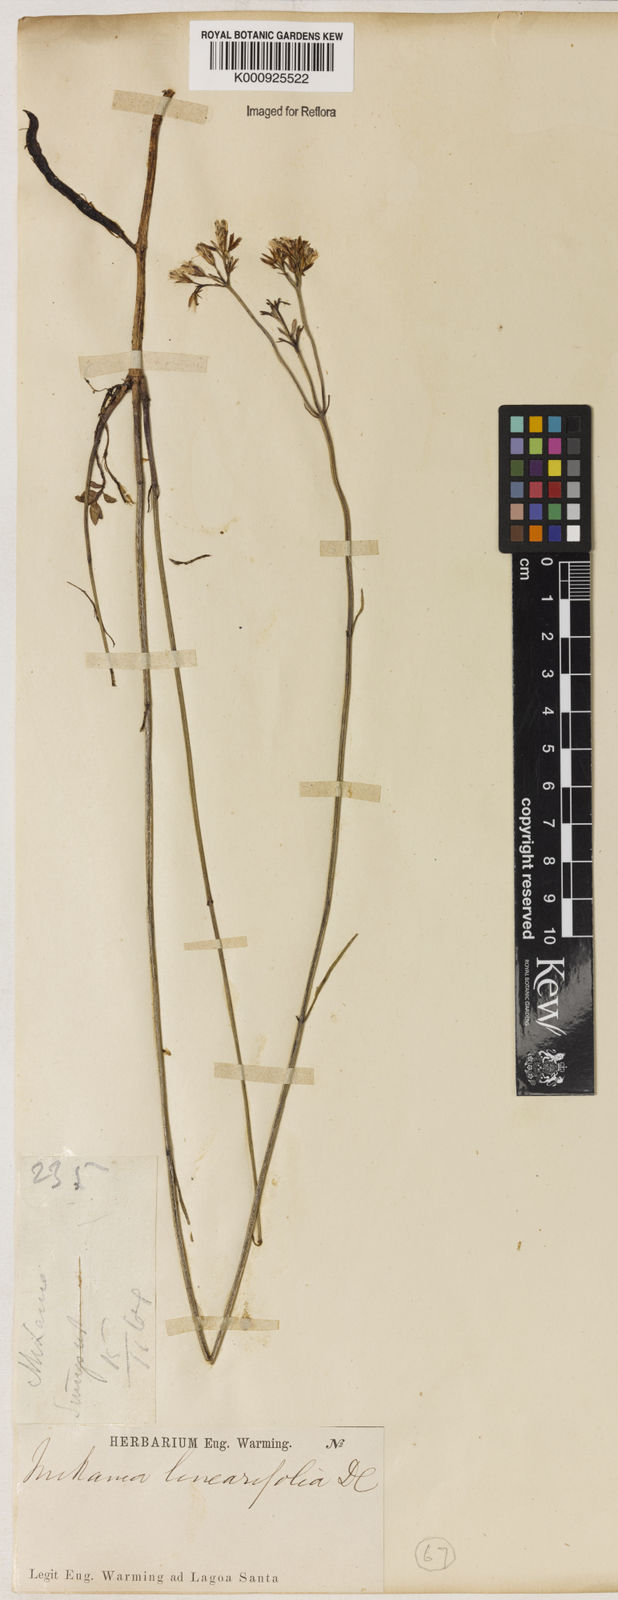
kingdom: Plantae
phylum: Tracheophyta
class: Magnoliopsida
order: Asterales
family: Asteraceae
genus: Mikania
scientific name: Mikania linearifolia
